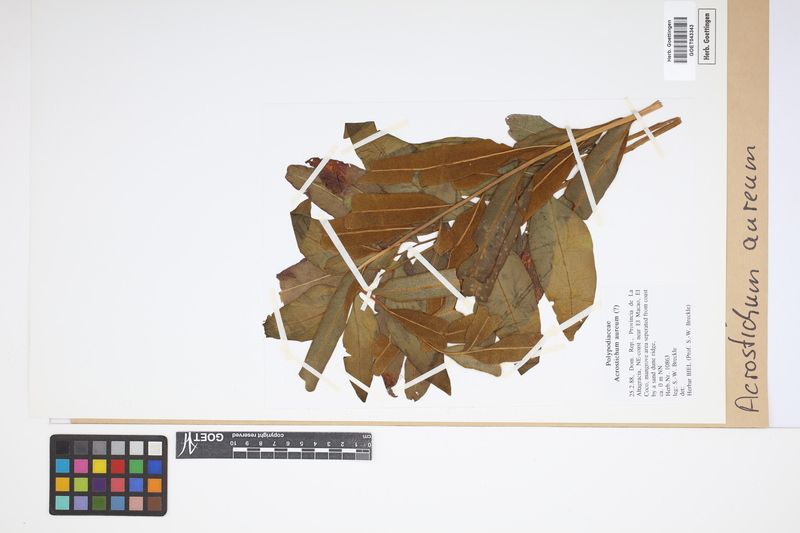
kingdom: Plantae
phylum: Tracheophyta
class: Polypodiopsida
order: Polypodiales
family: Pteridaceae
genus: Acrostichum
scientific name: Acrostichum aureum
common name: Leather fern
